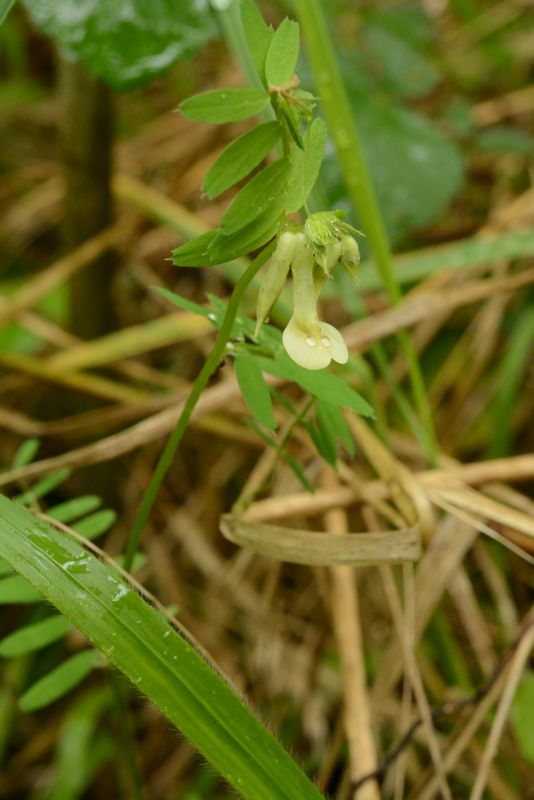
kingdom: Plantae
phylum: Tracheophyta
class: Magnoliopsida
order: Fabales
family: Fabaceae
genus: Vicia
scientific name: Vicia grandiflora
